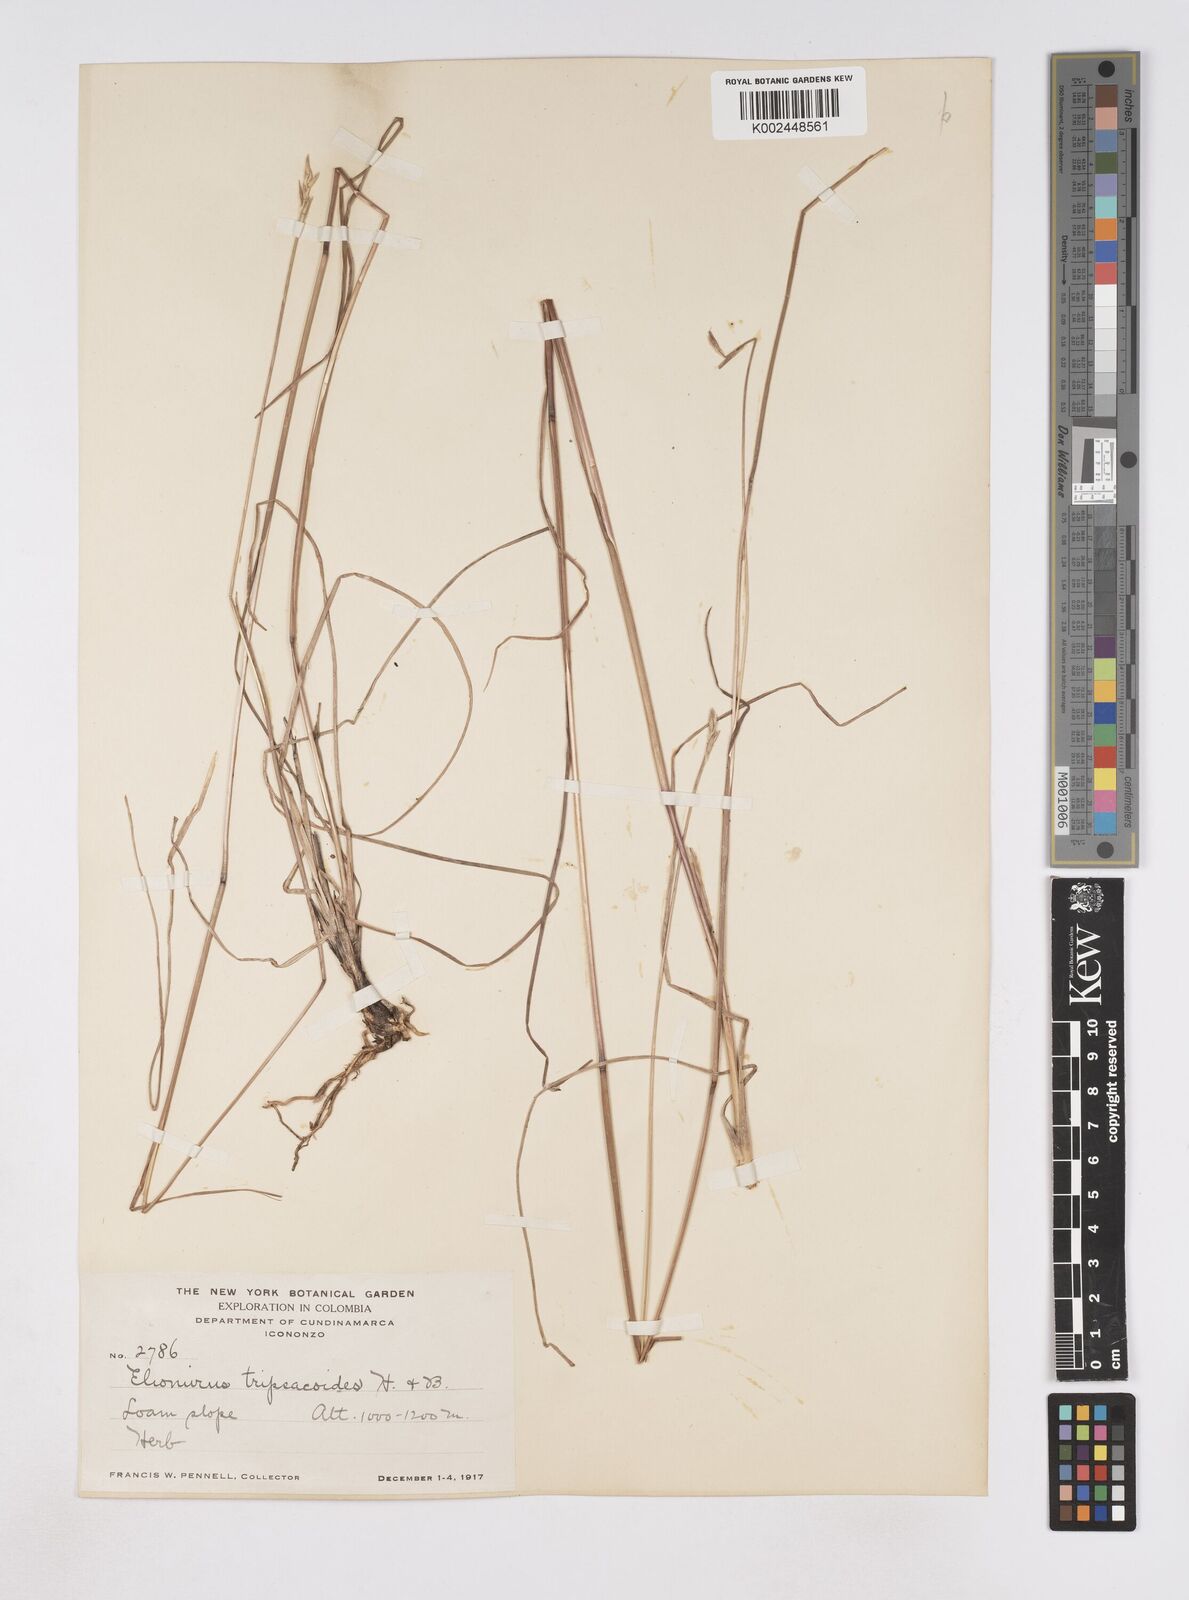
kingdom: Plantae
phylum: Tracheophyta
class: Liliopsida
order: Poales
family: Poaceae
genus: Elionurus
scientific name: Elionurus tripsacoides
